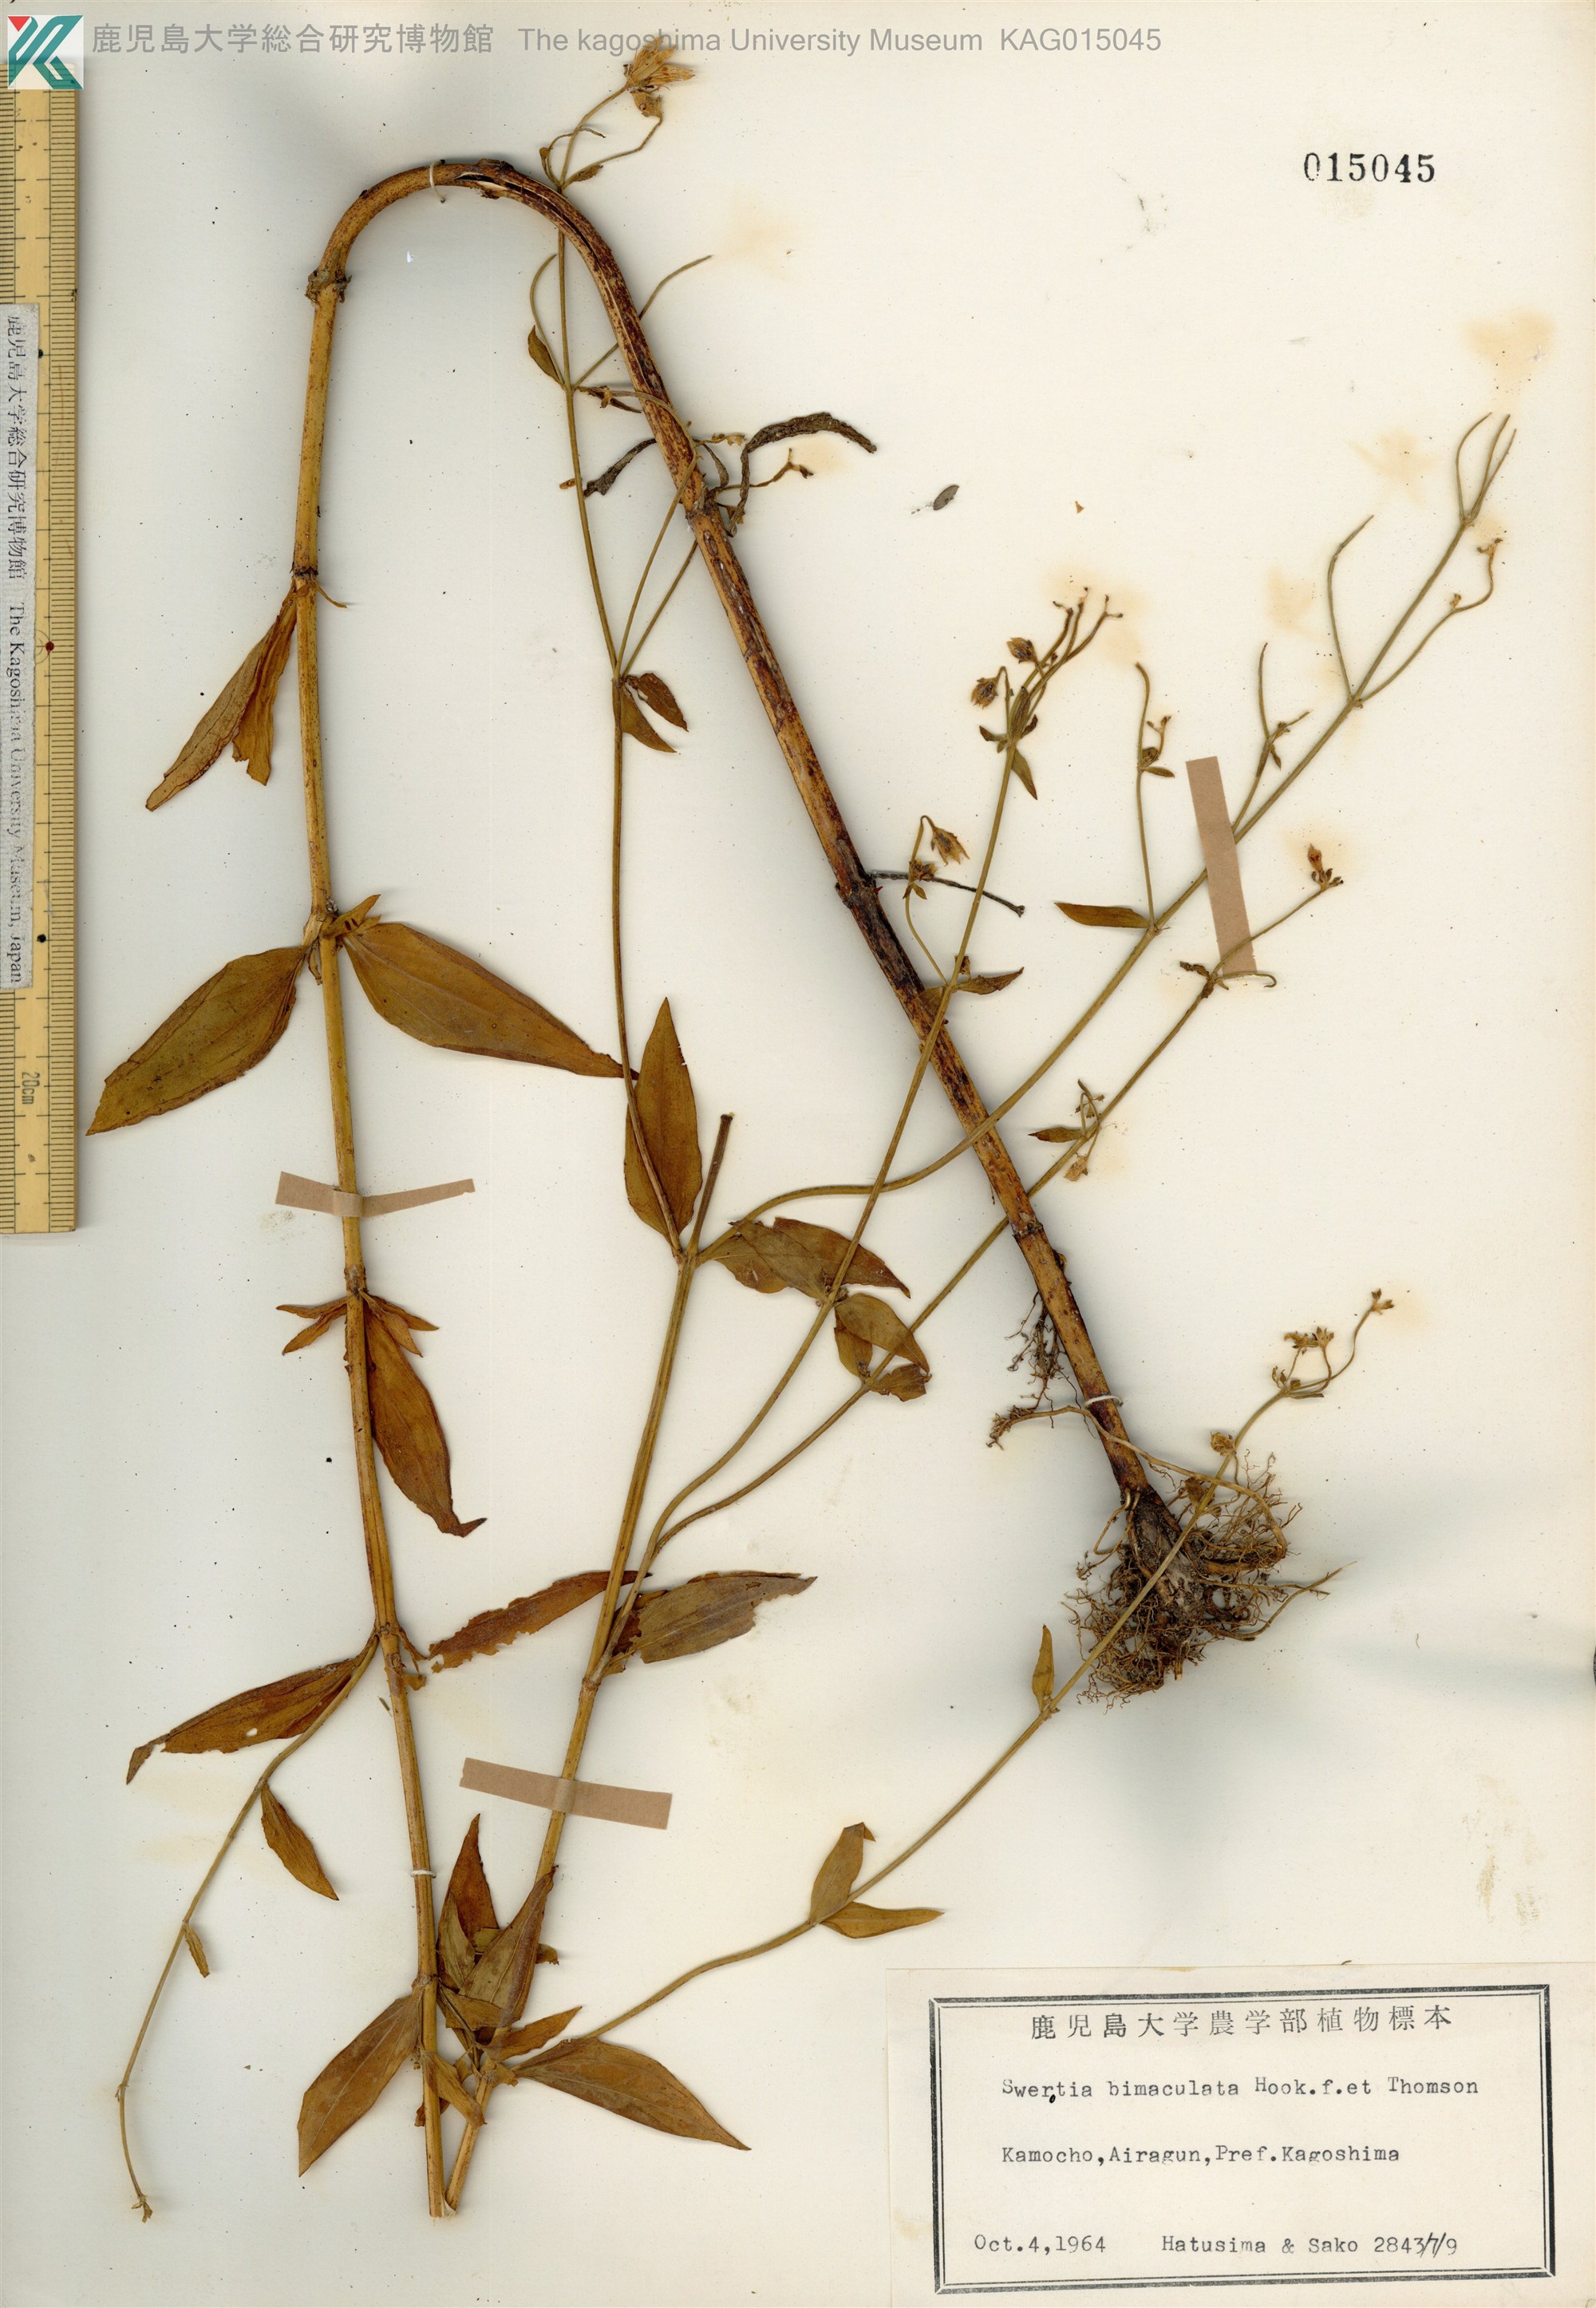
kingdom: Plantae
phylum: Tracheophyta
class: Magnoliopsida
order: Gentianales
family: Gentianaceae
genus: Swertia
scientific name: Swertia bimaculata
